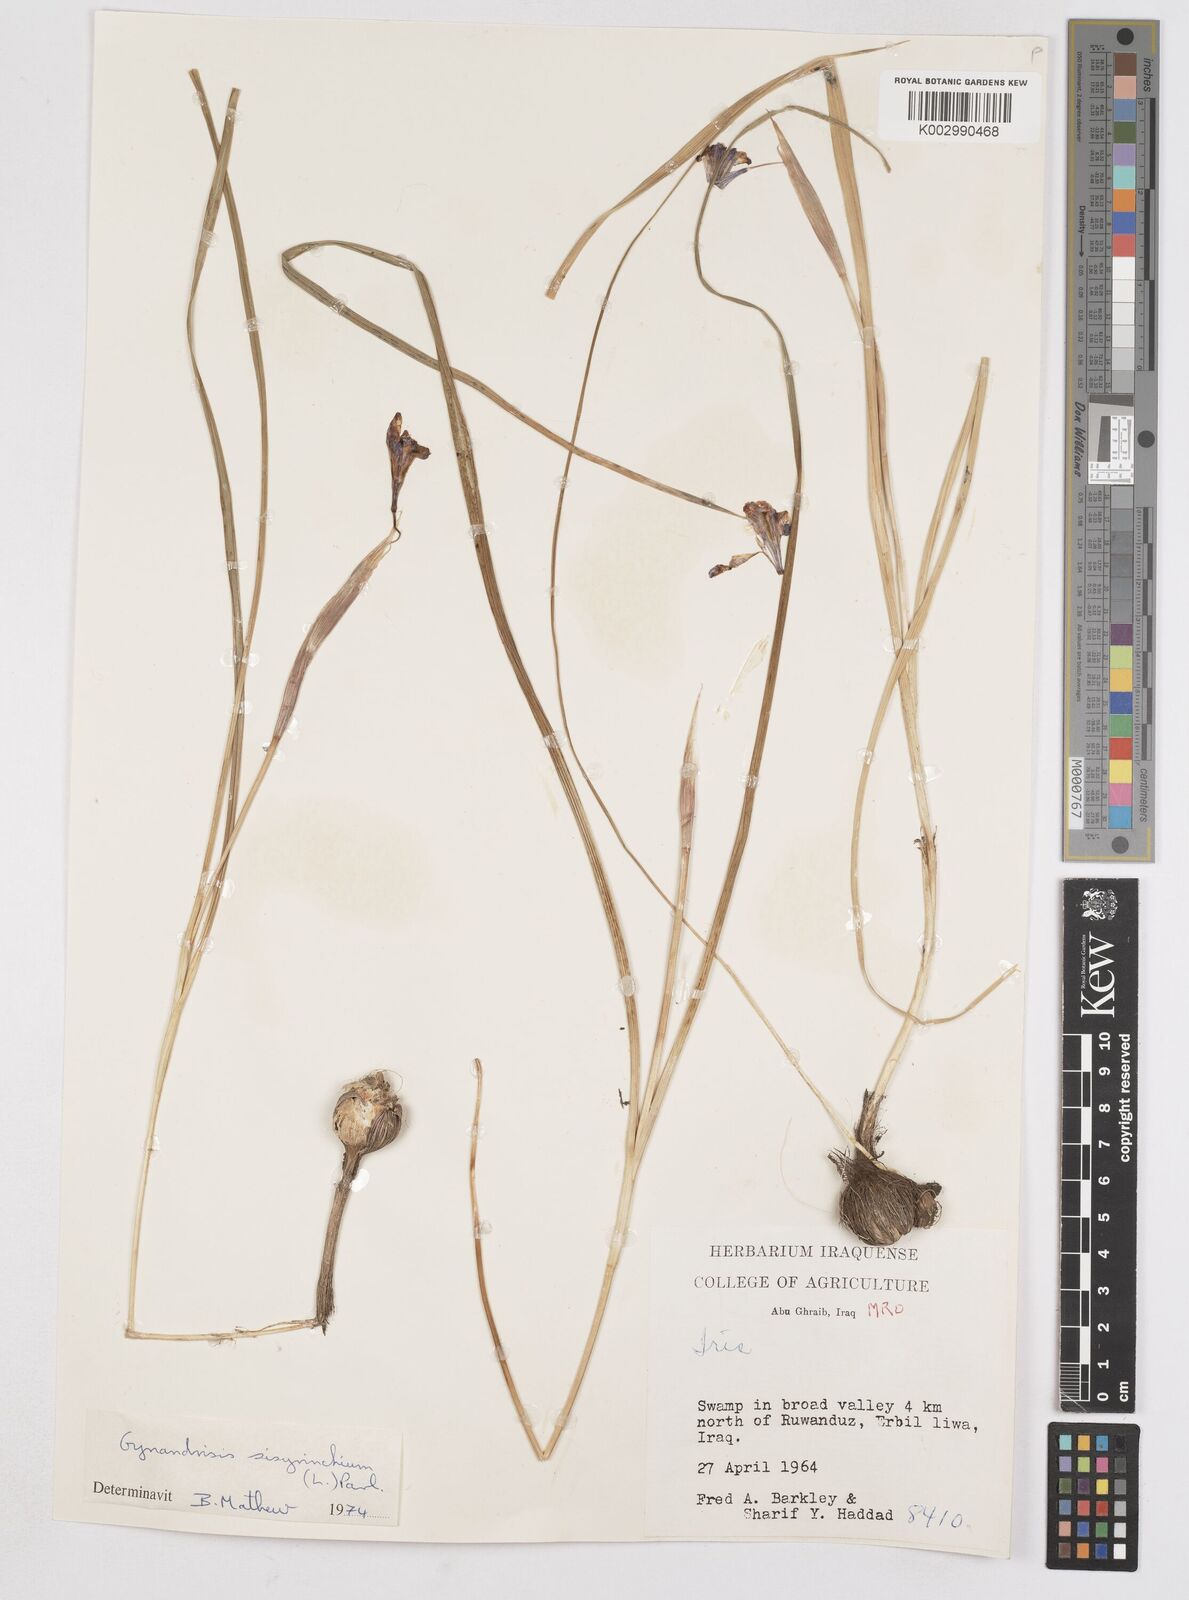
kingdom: Plantae
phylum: Tracheophyta
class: Liliopsida
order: Asparagales
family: Iridaceae
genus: Moraea
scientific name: Moraea sisyrinchium
